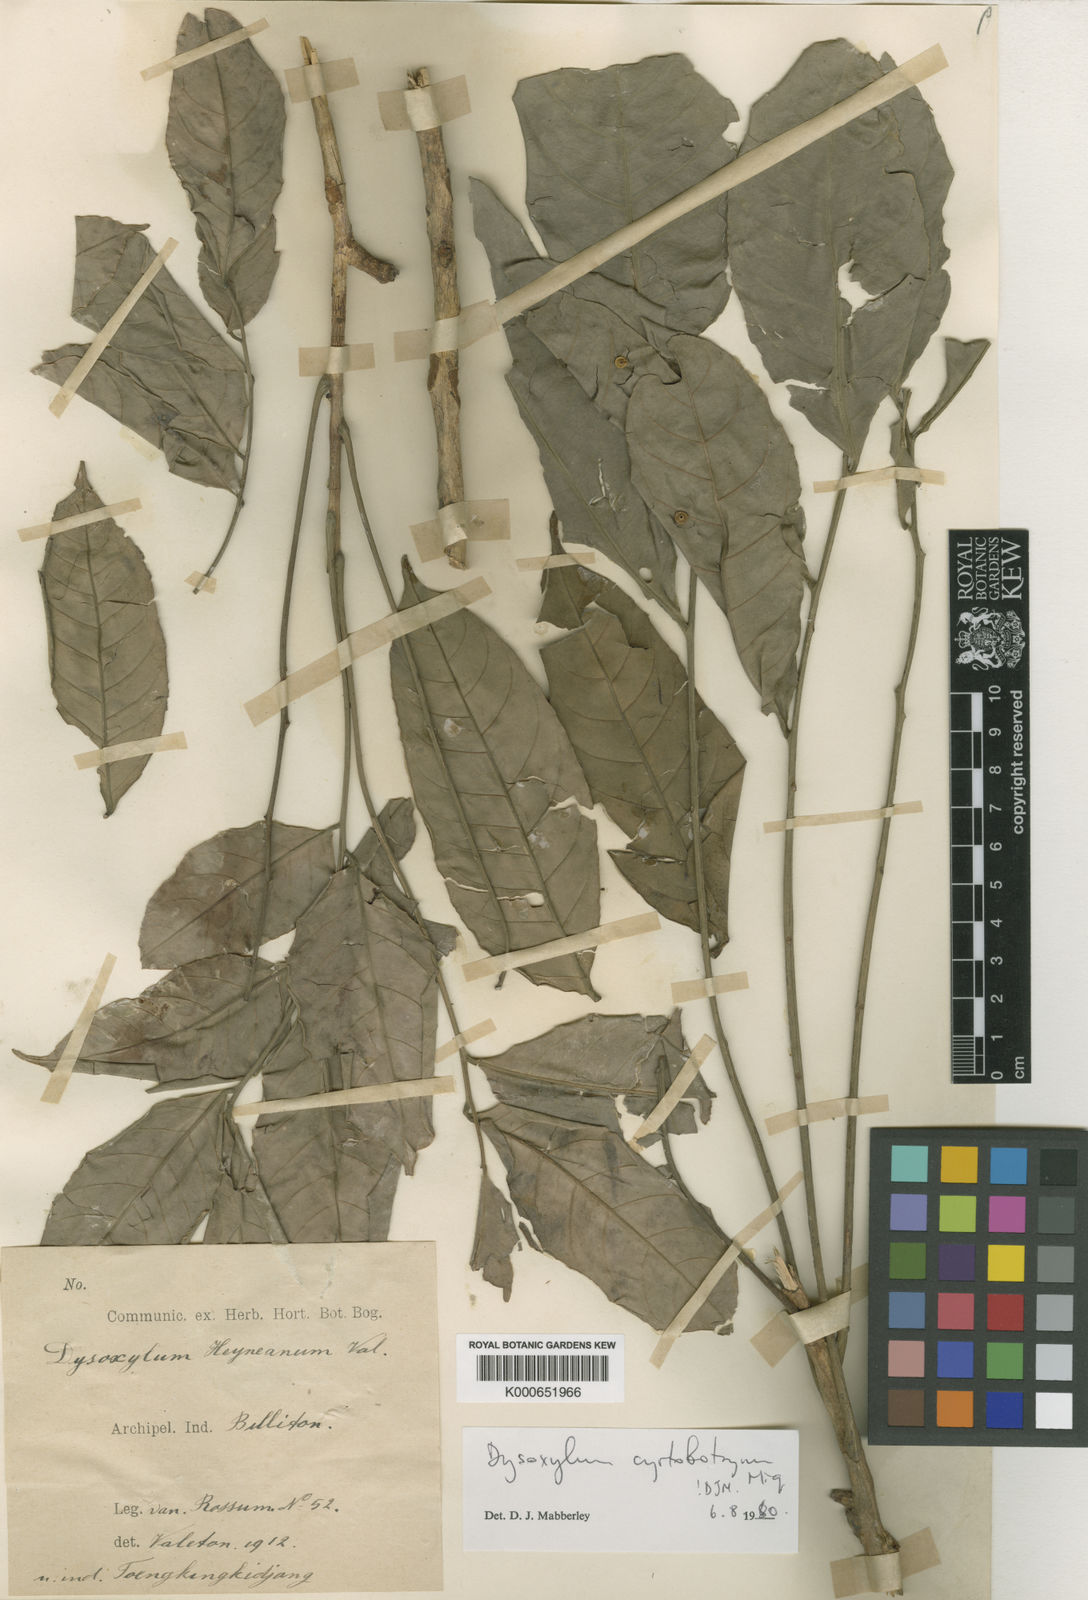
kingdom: Plantae
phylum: Tracheophyta
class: Magnoliopsida
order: Sapindales
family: Meliaceae
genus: Dysoxylum
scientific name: Dysoxylum cyrtobotryum
